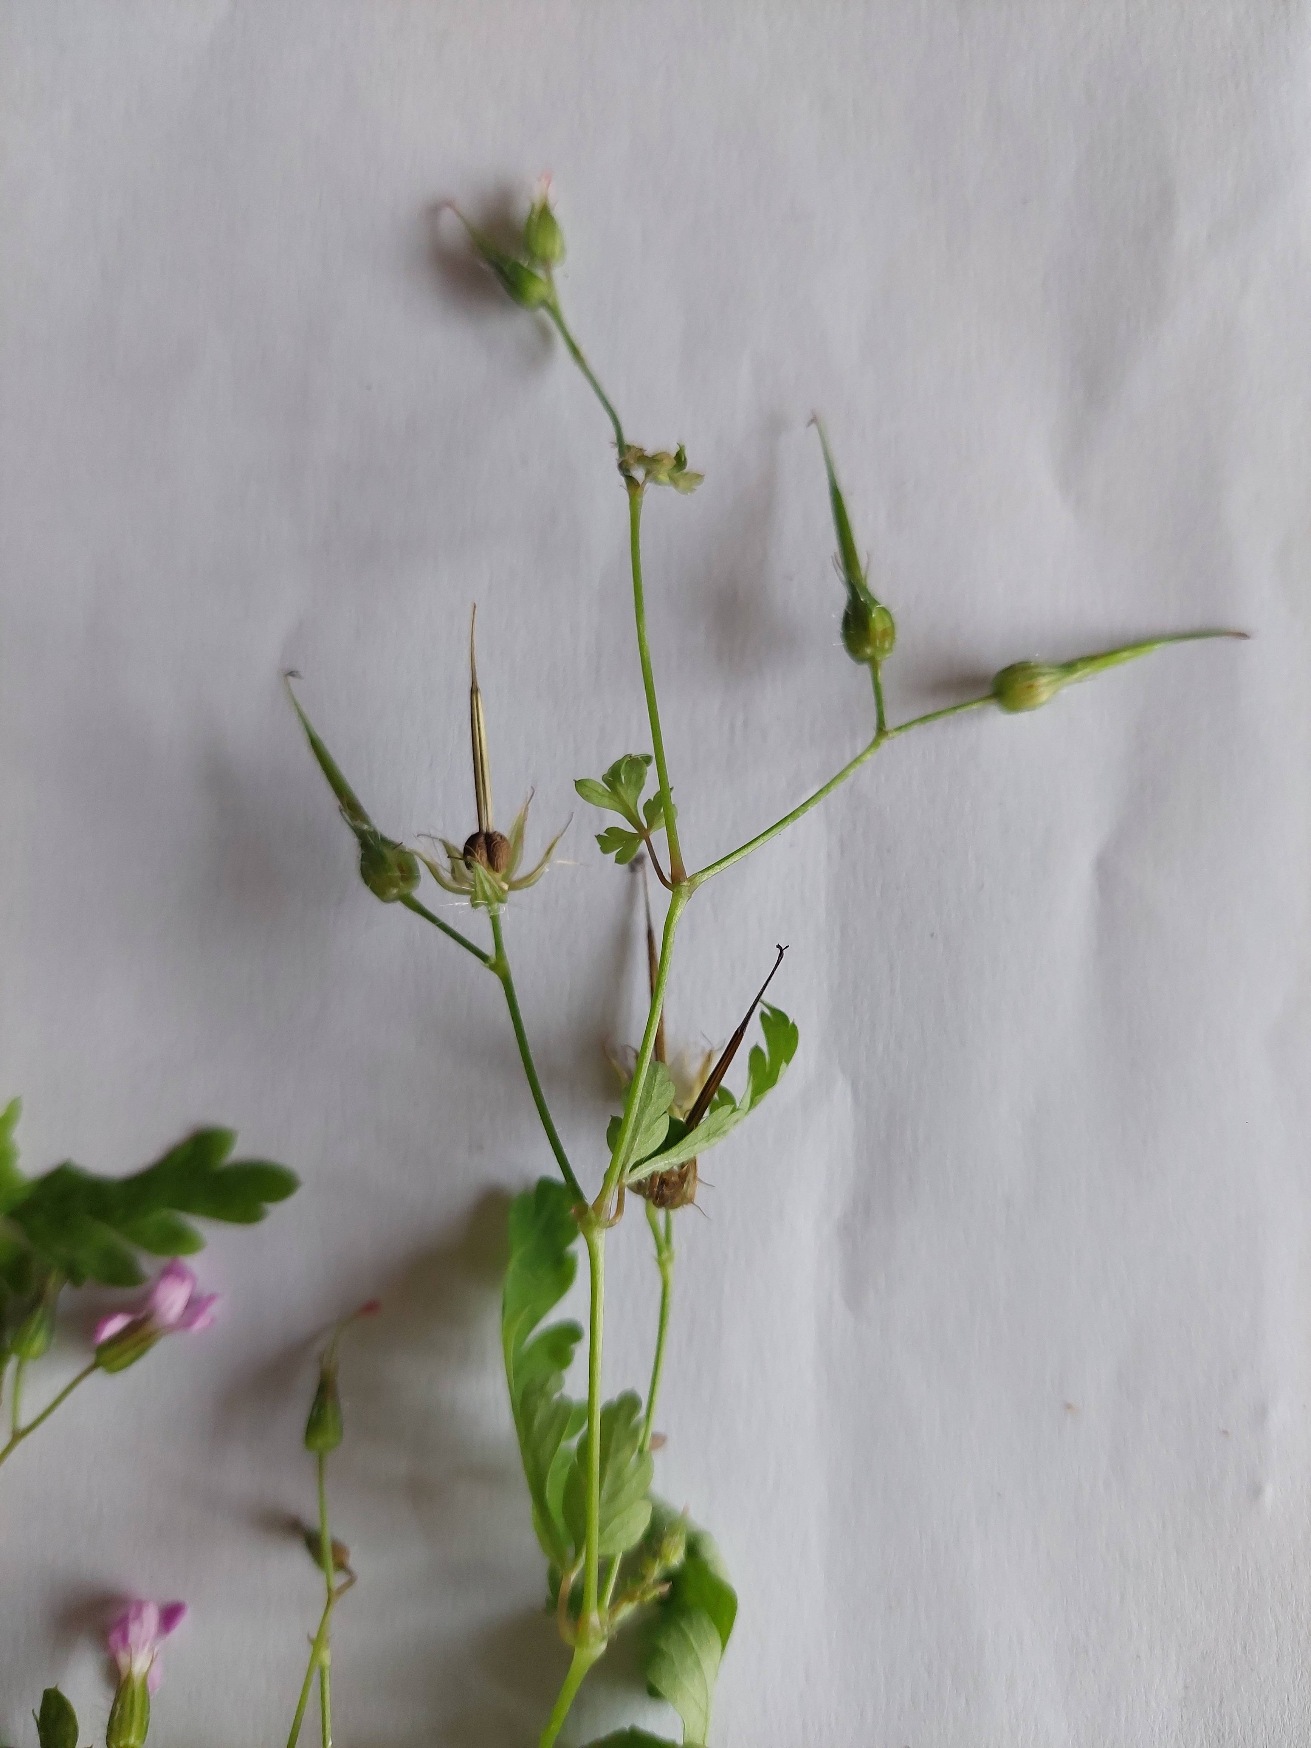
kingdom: Plantae
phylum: Tracheophyta
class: Magnoliopsida
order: Geraniales
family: Geraniaceae
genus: Geranium
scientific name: Geranium robertianum
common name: Stinkende storkenæb
